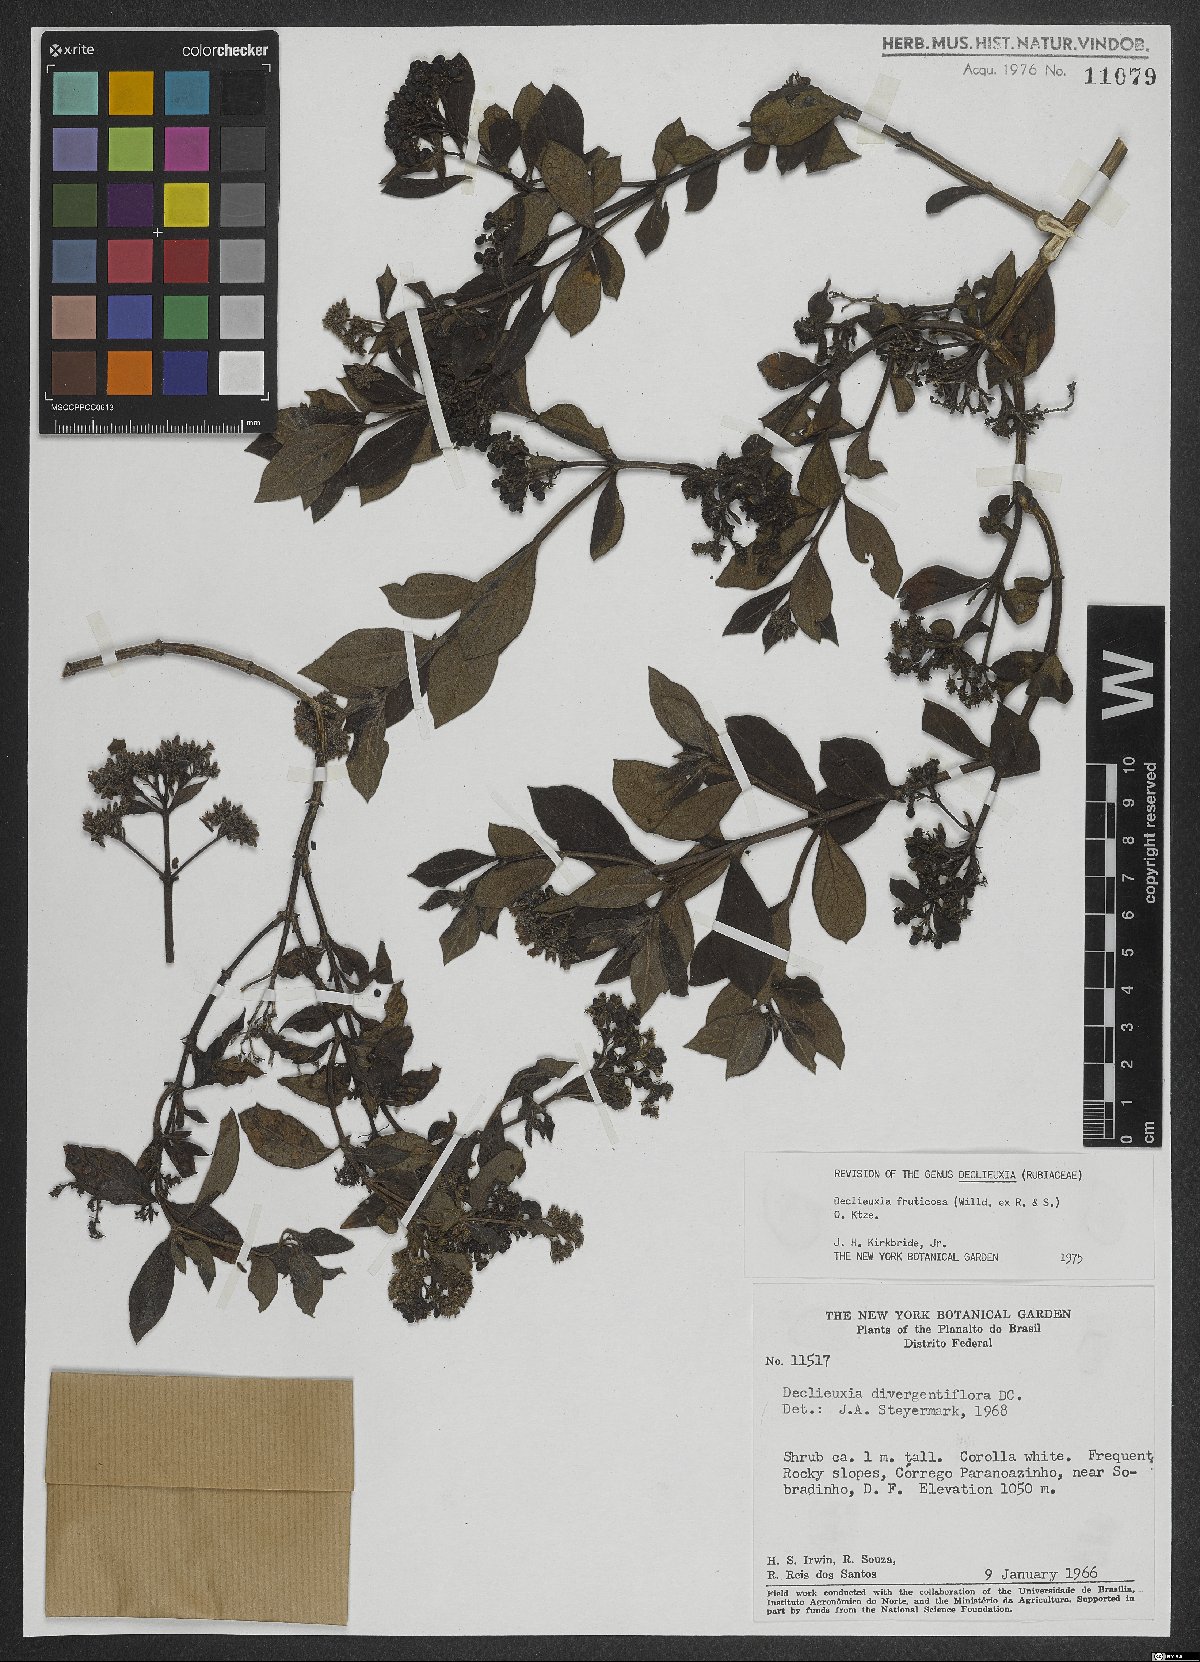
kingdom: Plantae
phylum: Tracheophyta
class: Magnoliopsida
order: Gentianales
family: Rubiaceae
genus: Declieuxia
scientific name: Declieuxia fruticosa
